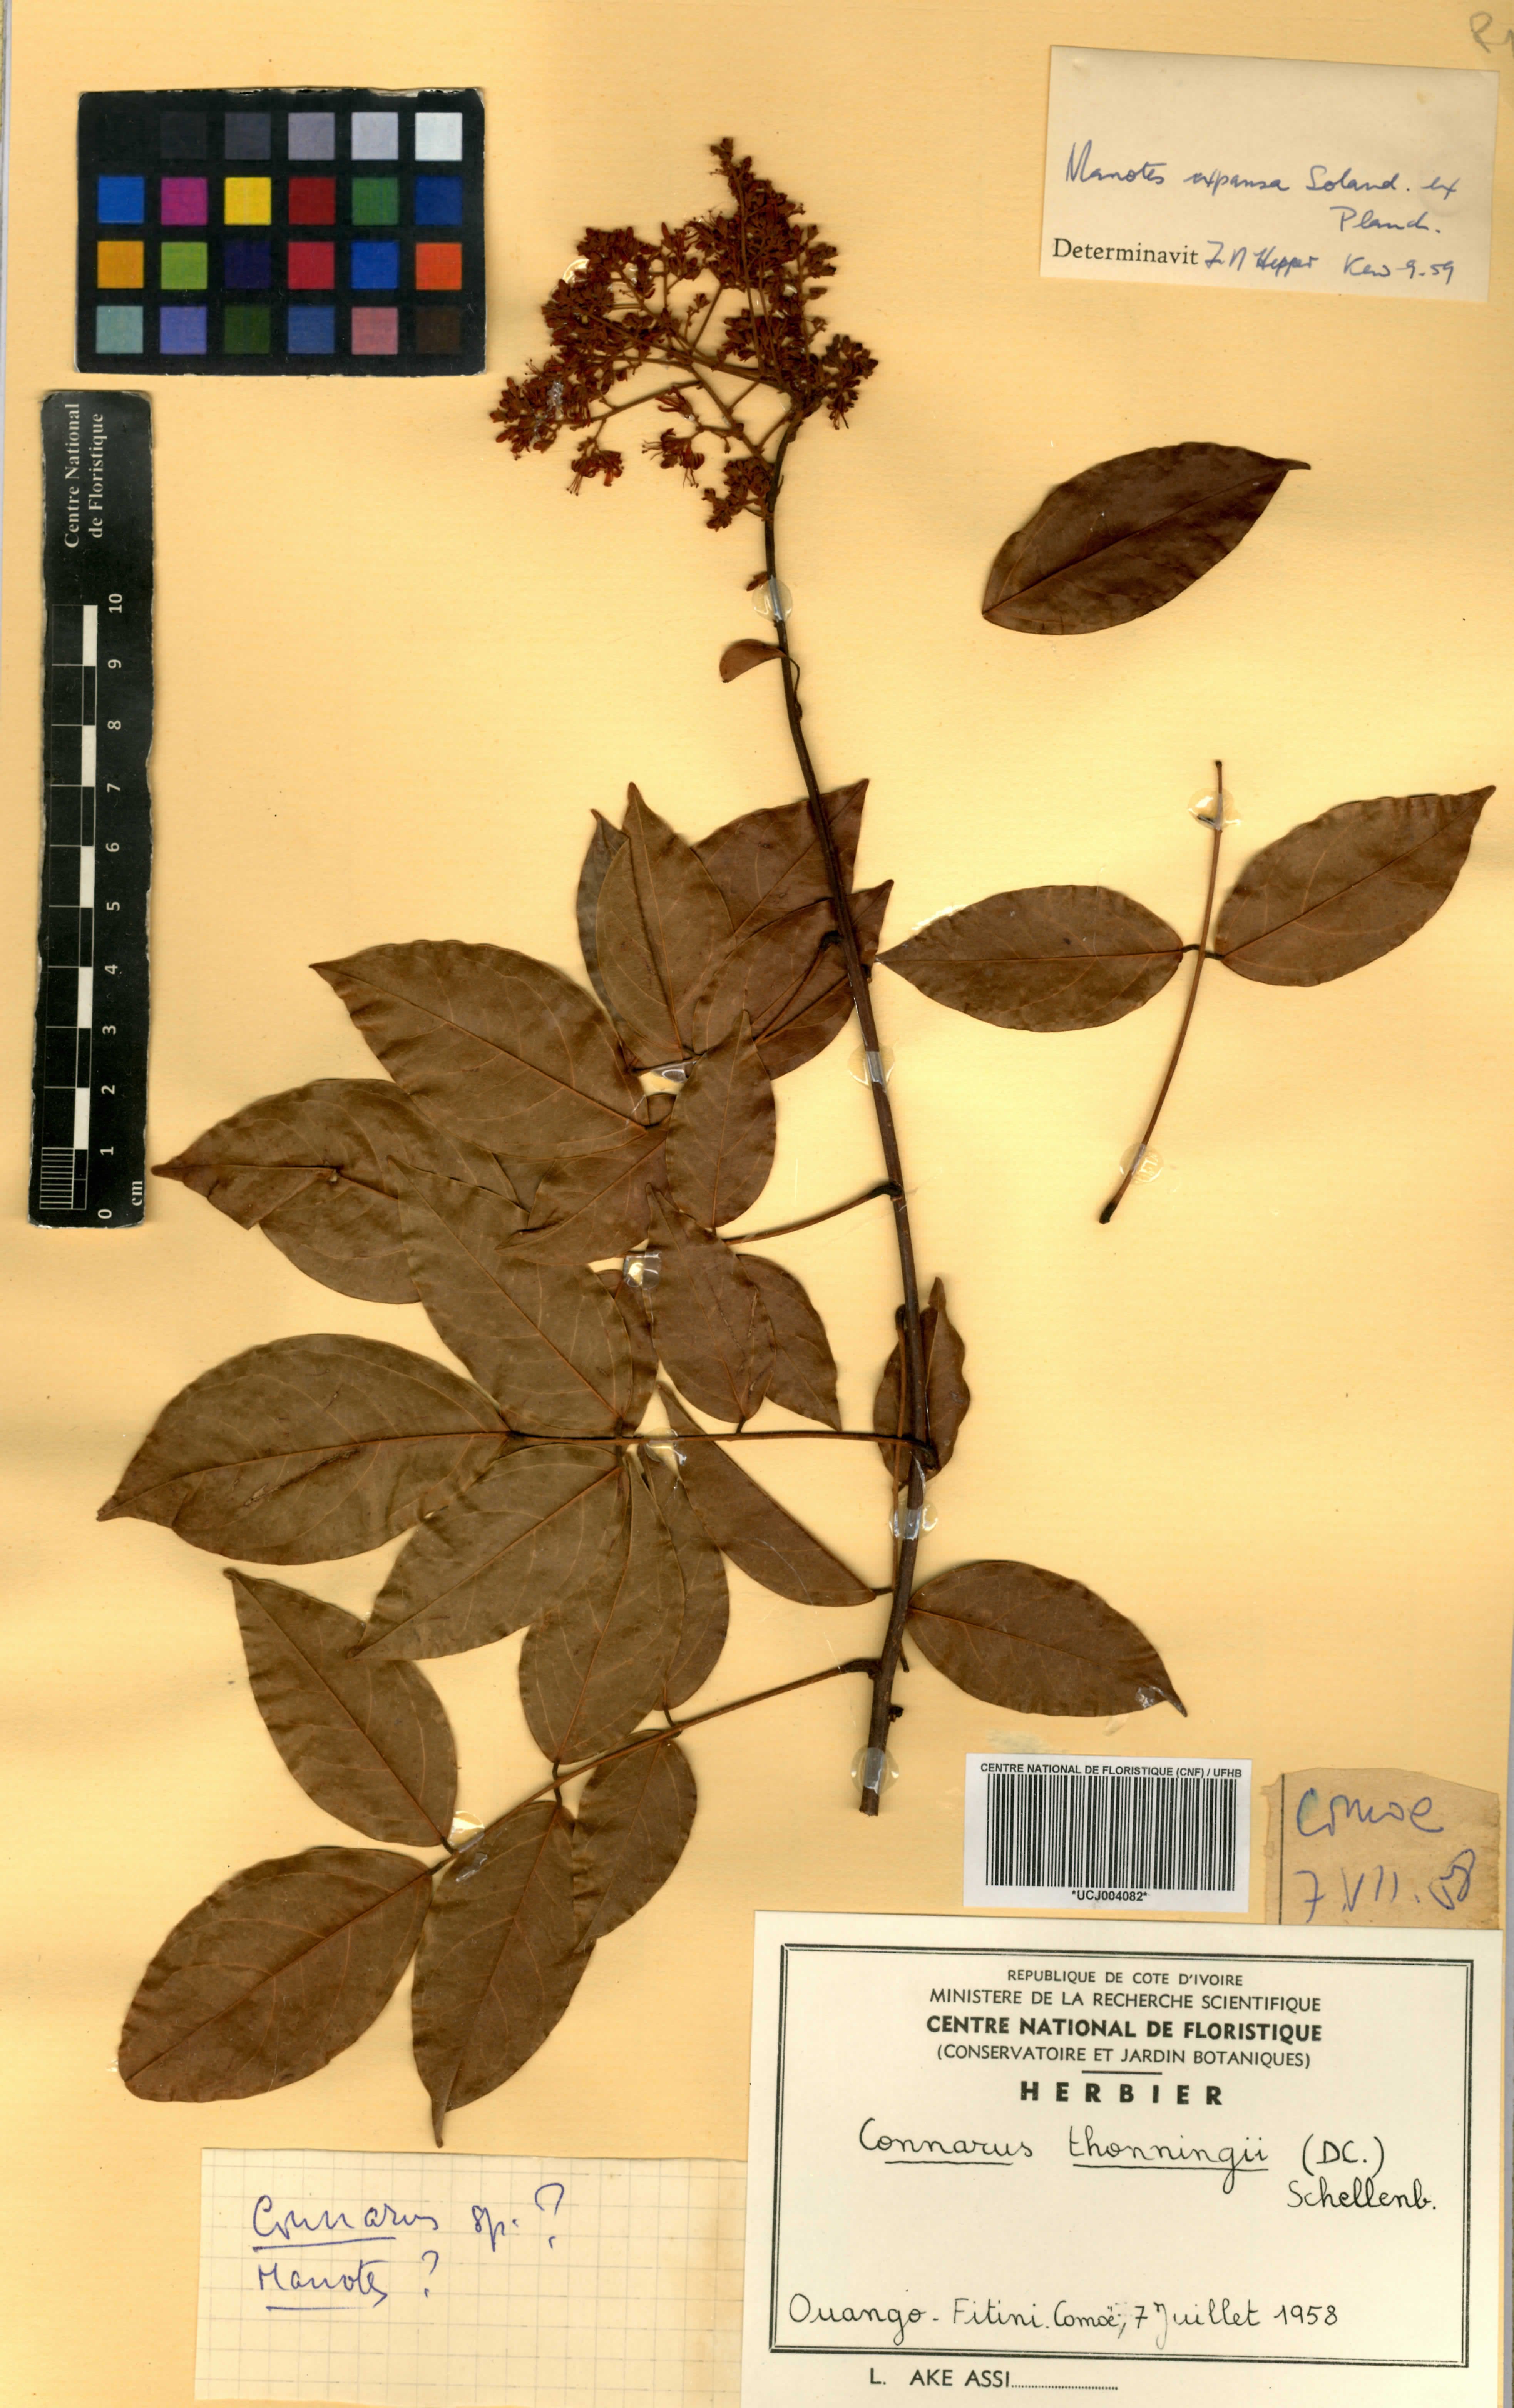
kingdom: Plantae
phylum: Tracheophyta
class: Magnoliopsida
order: Oxalidales
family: Connaraceae
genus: Connarus
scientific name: Connarus thonningii
